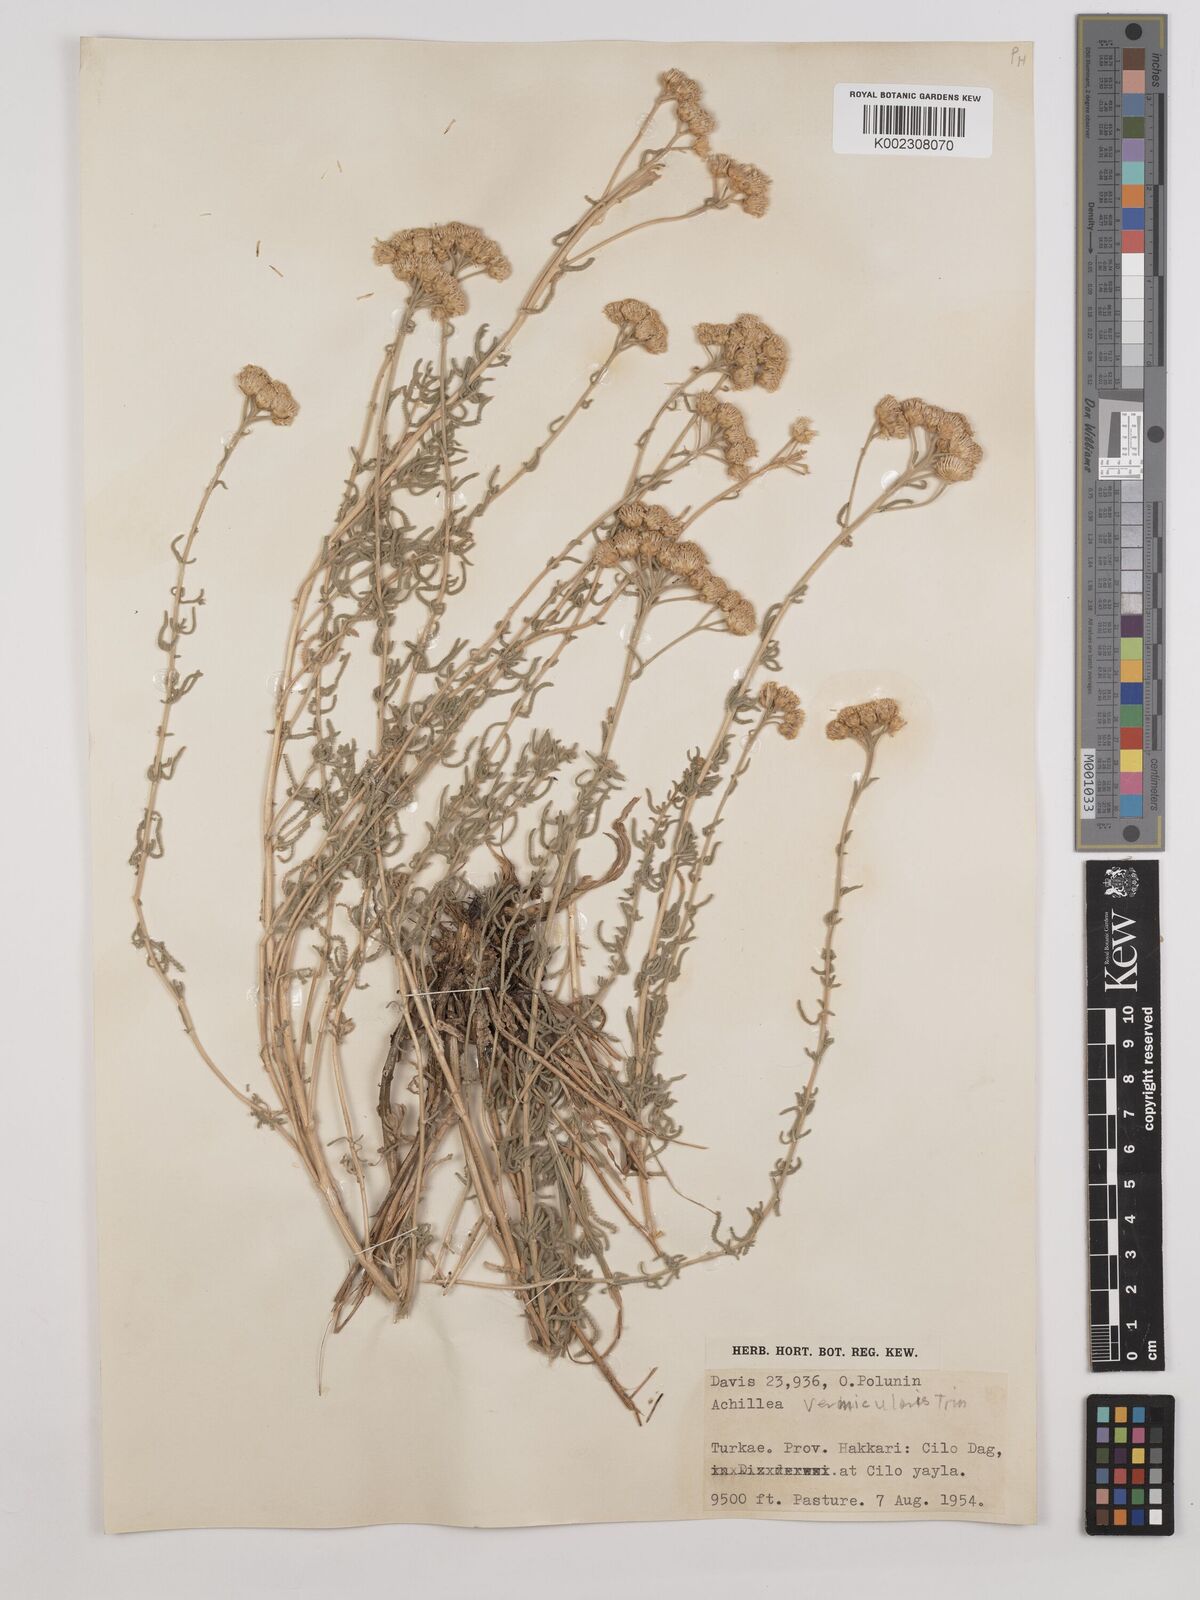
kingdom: Plantae
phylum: Tracheophyta
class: Magnoliopsida
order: Asterales
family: Asteraceae
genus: Achillea
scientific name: Achillea vermicularis
